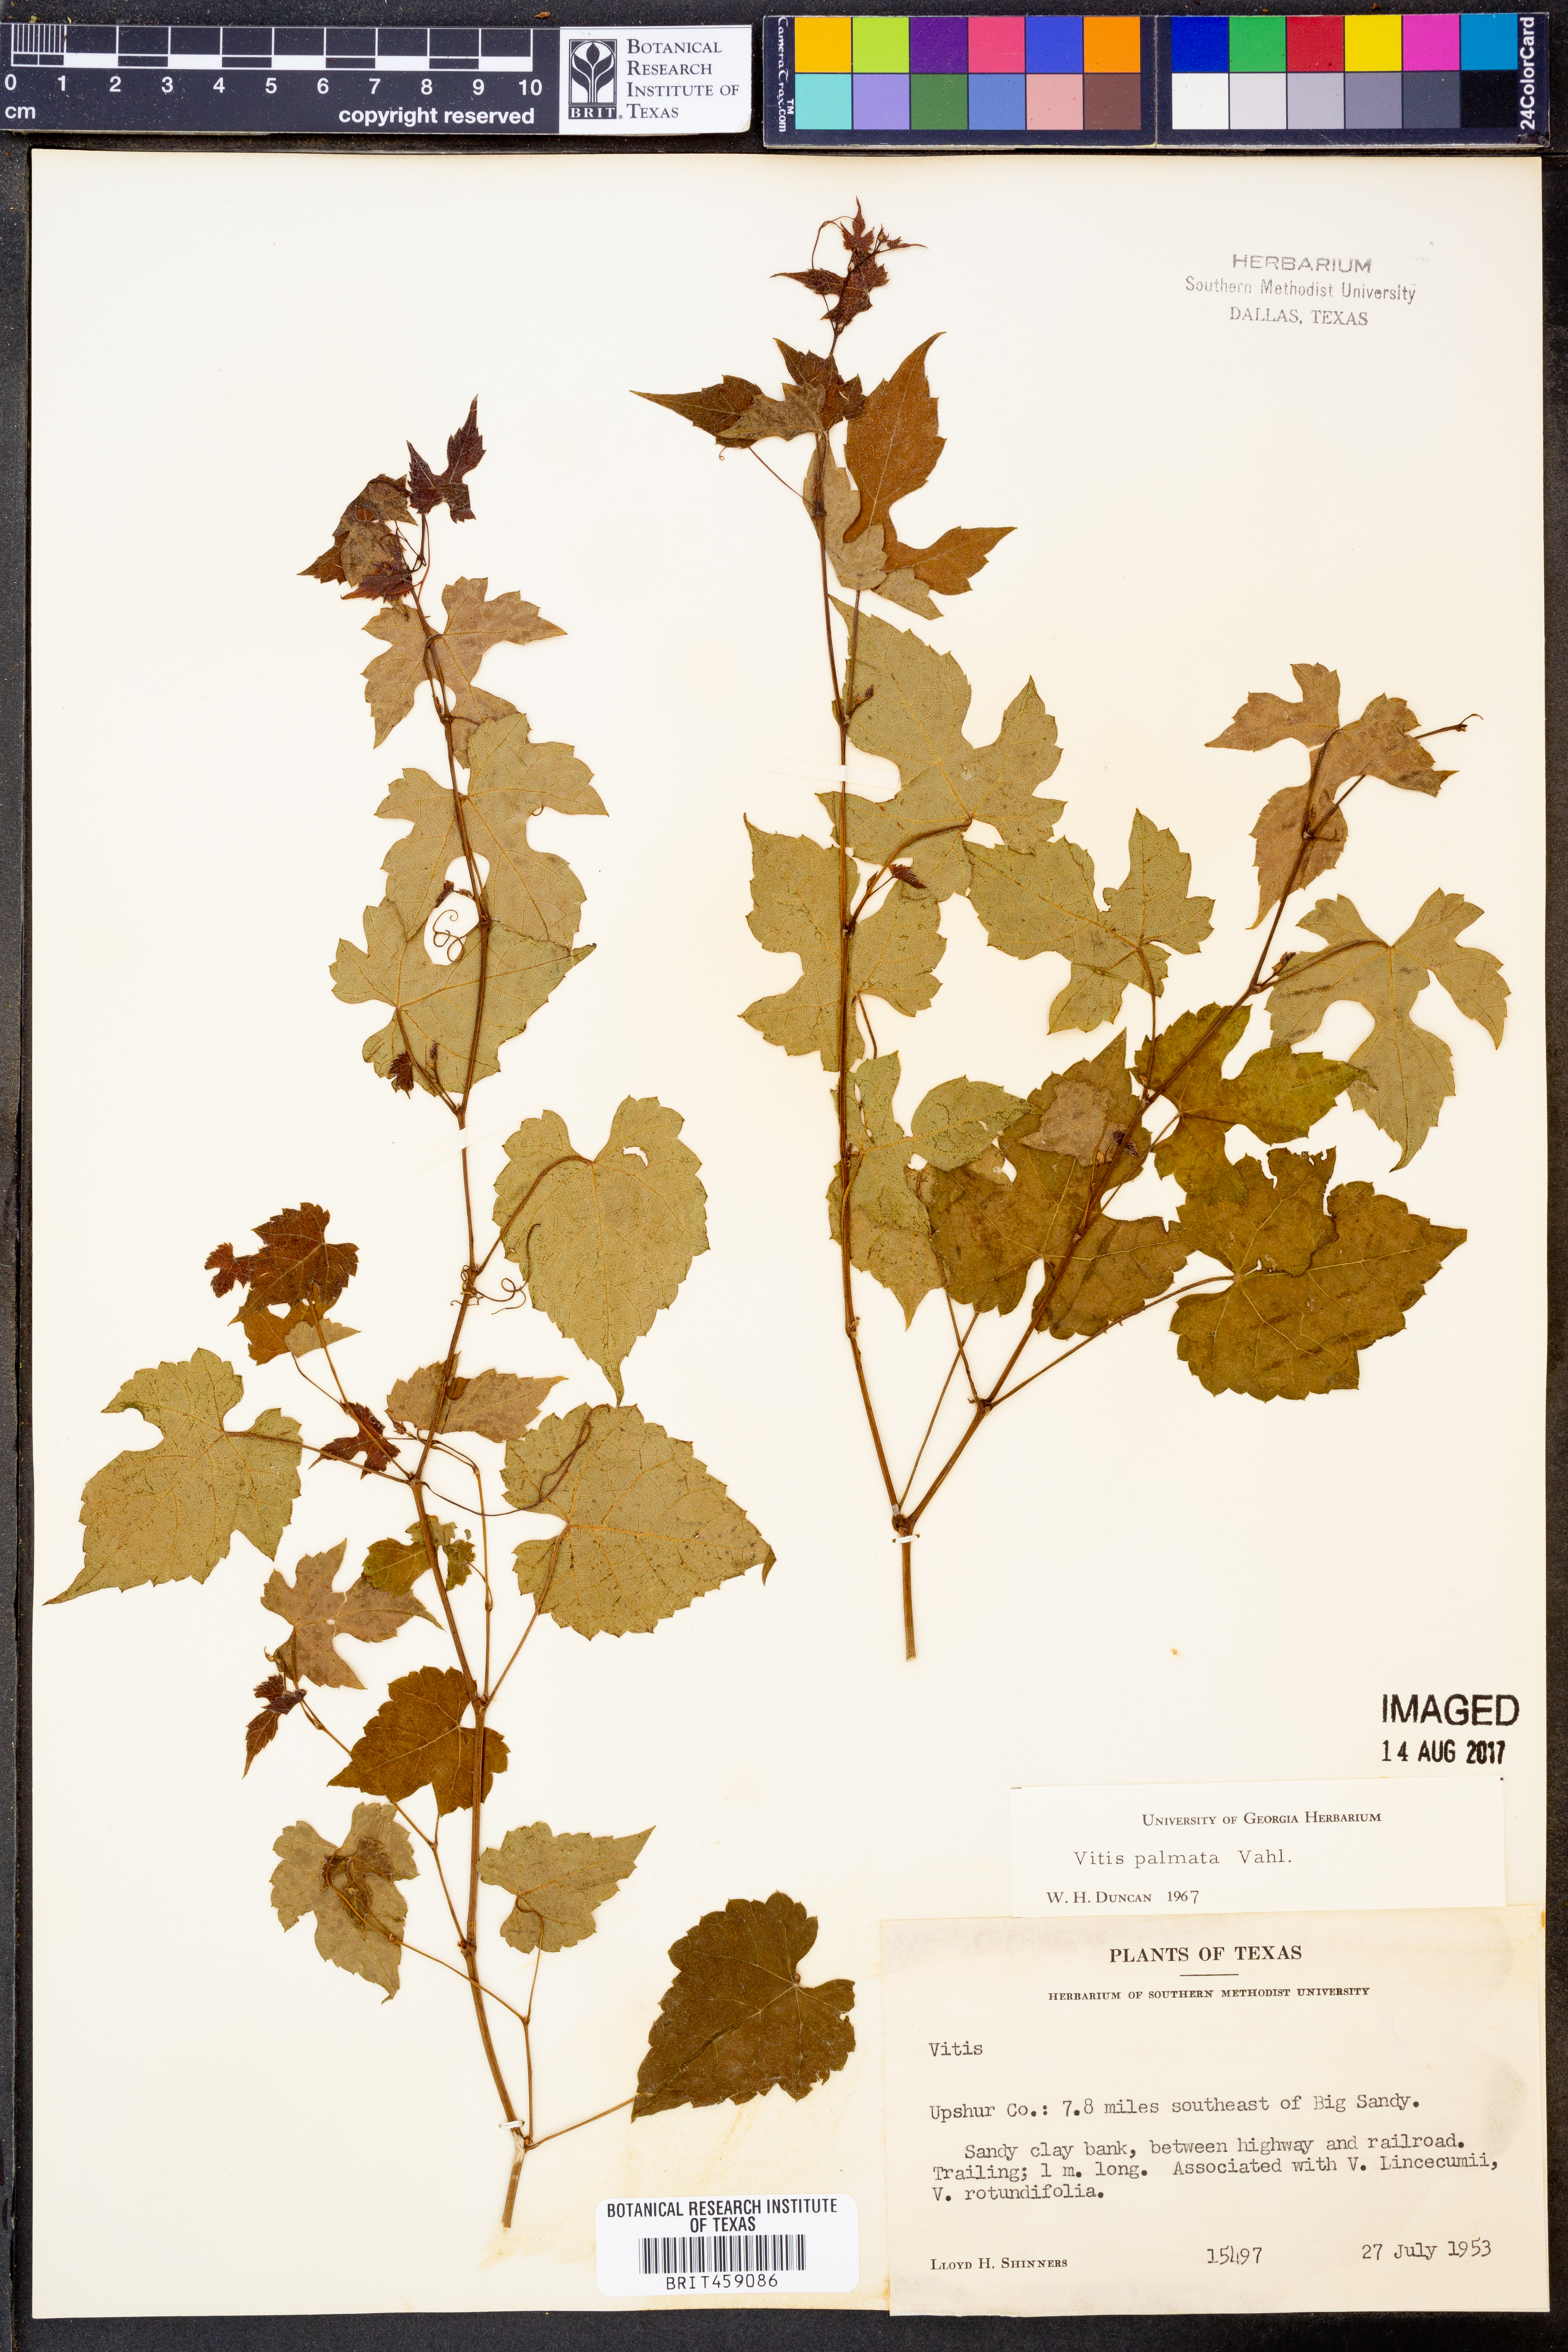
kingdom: Plantae
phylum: Tracheophyta
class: Magnoliopsida
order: Vitales
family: Vitaceae
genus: Vitis
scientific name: Vitis palmata
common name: Catbird grape
